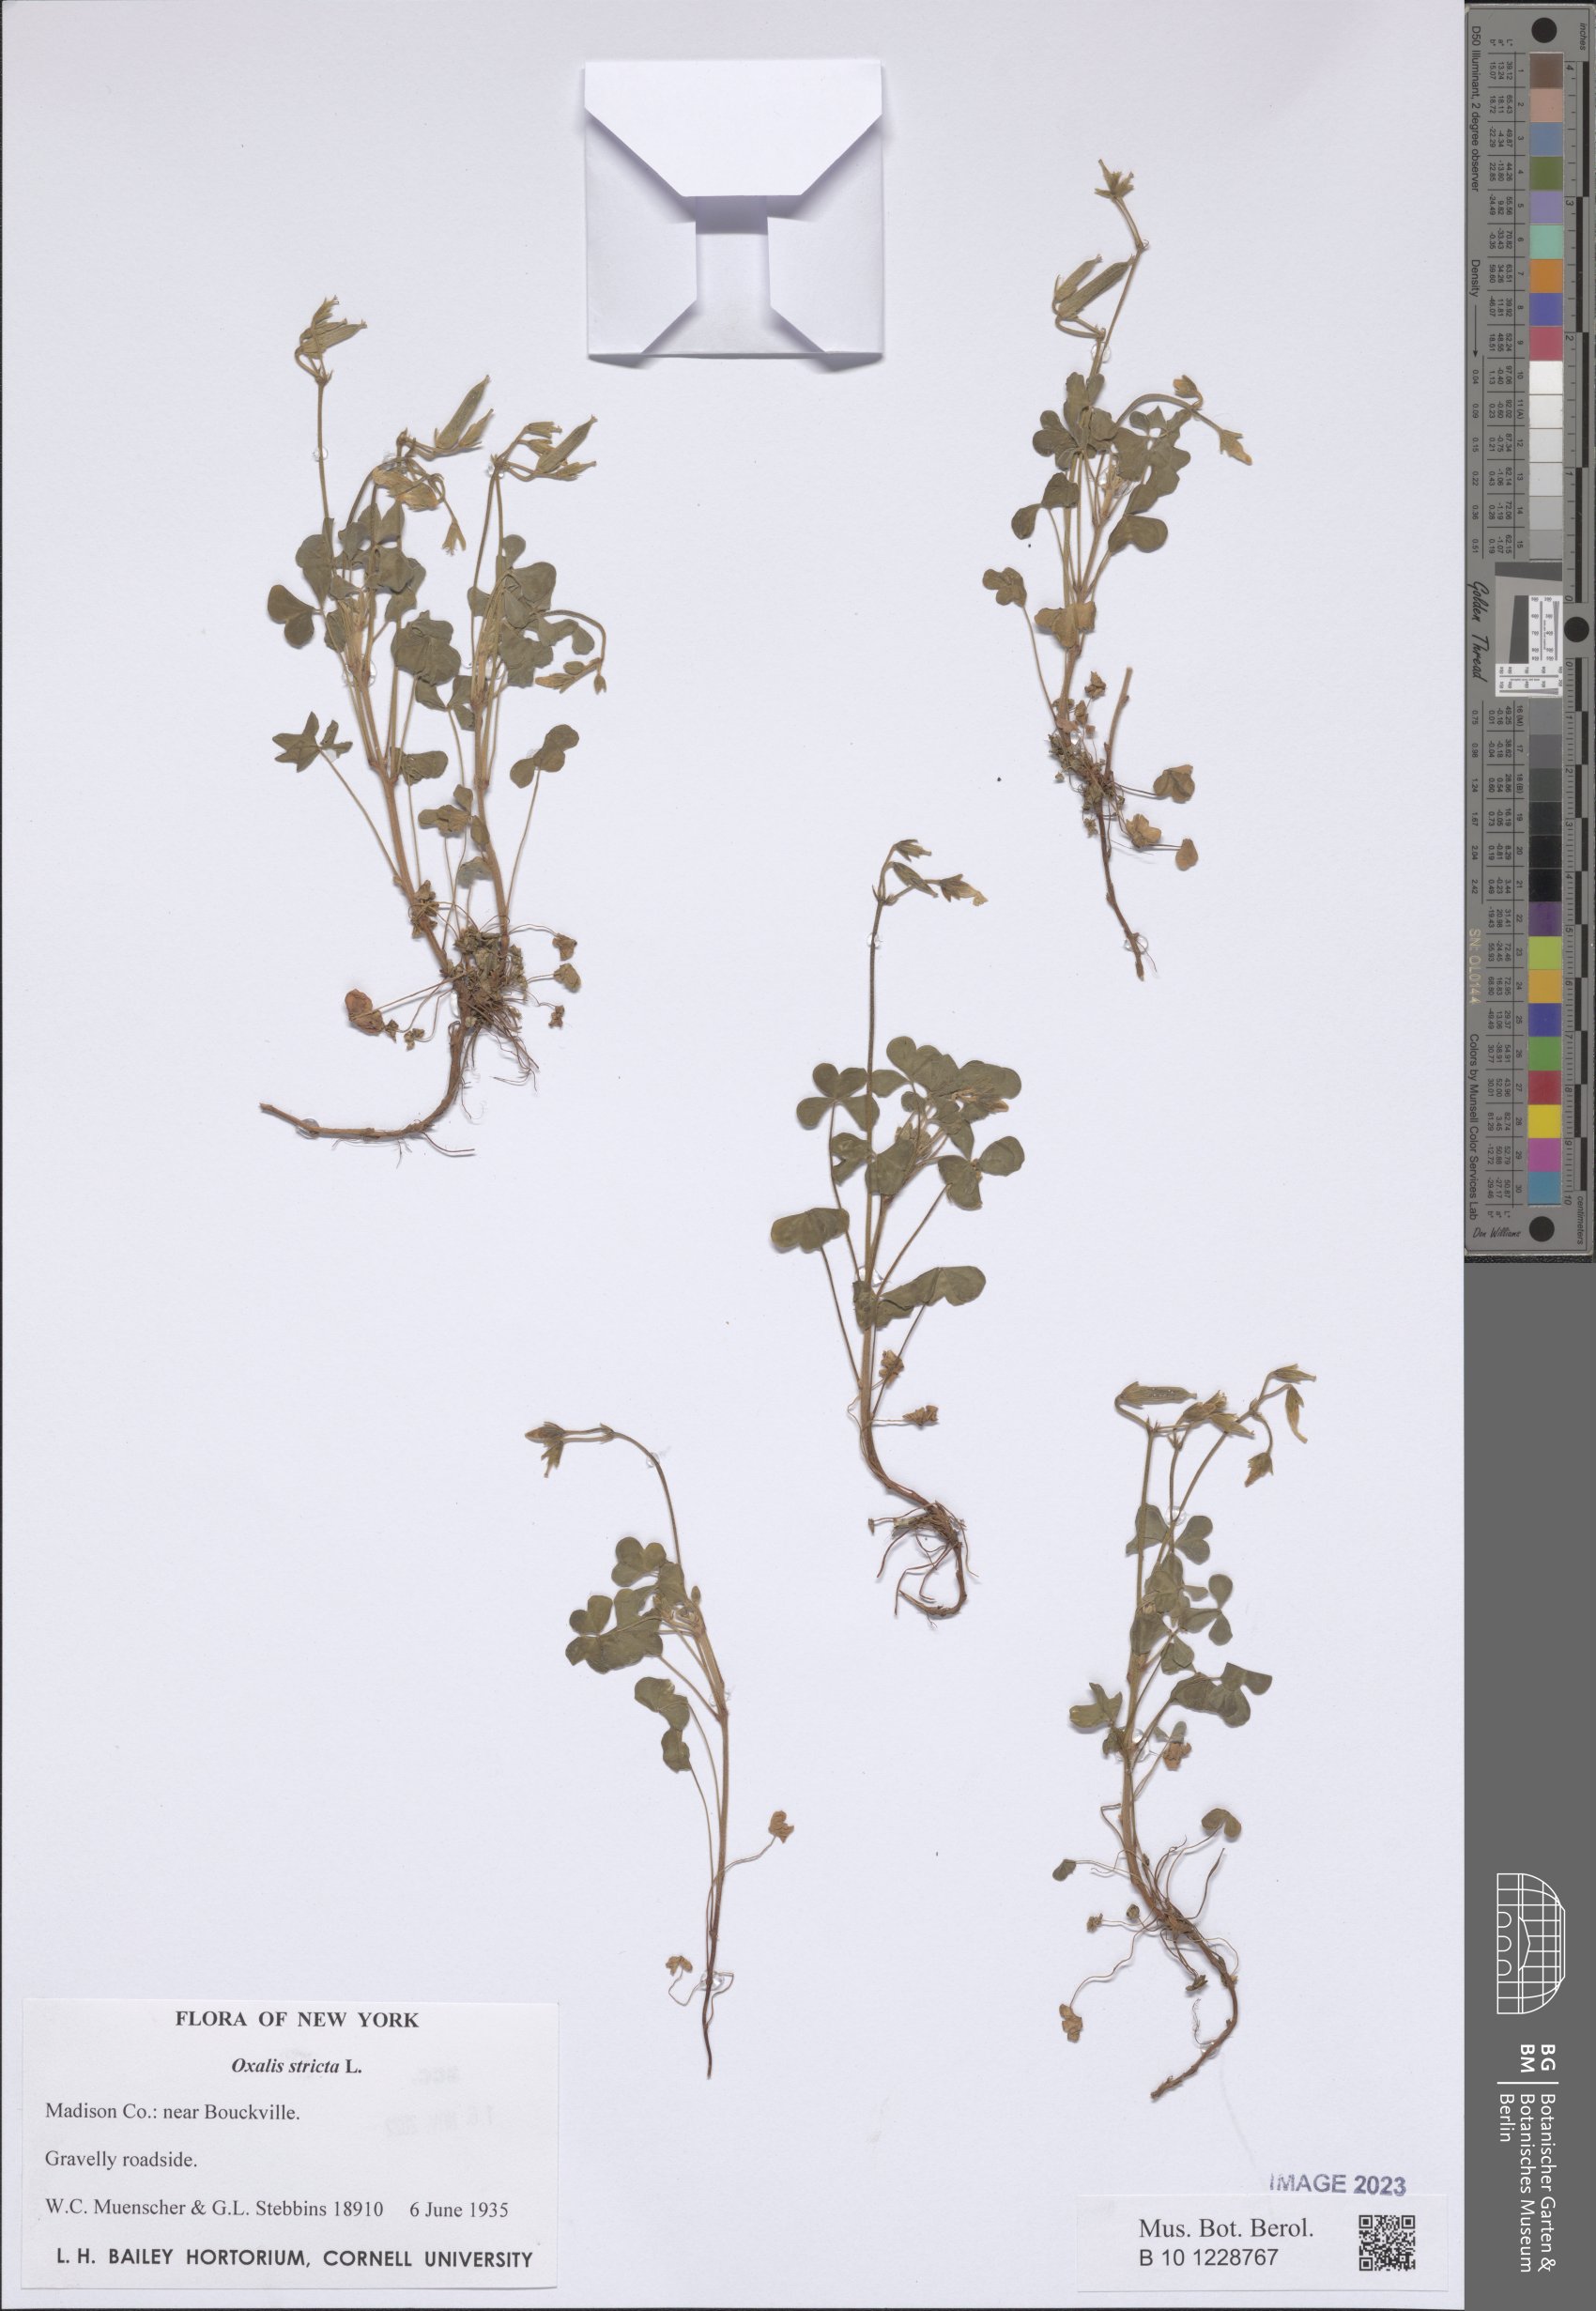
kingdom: Plantae
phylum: Tracheophyta
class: Magnoliopsida
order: Oxalidales
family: Oxalidaceae
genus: Oxalis
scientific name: Oxalis stricta
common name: Upright yellow-sorrel
